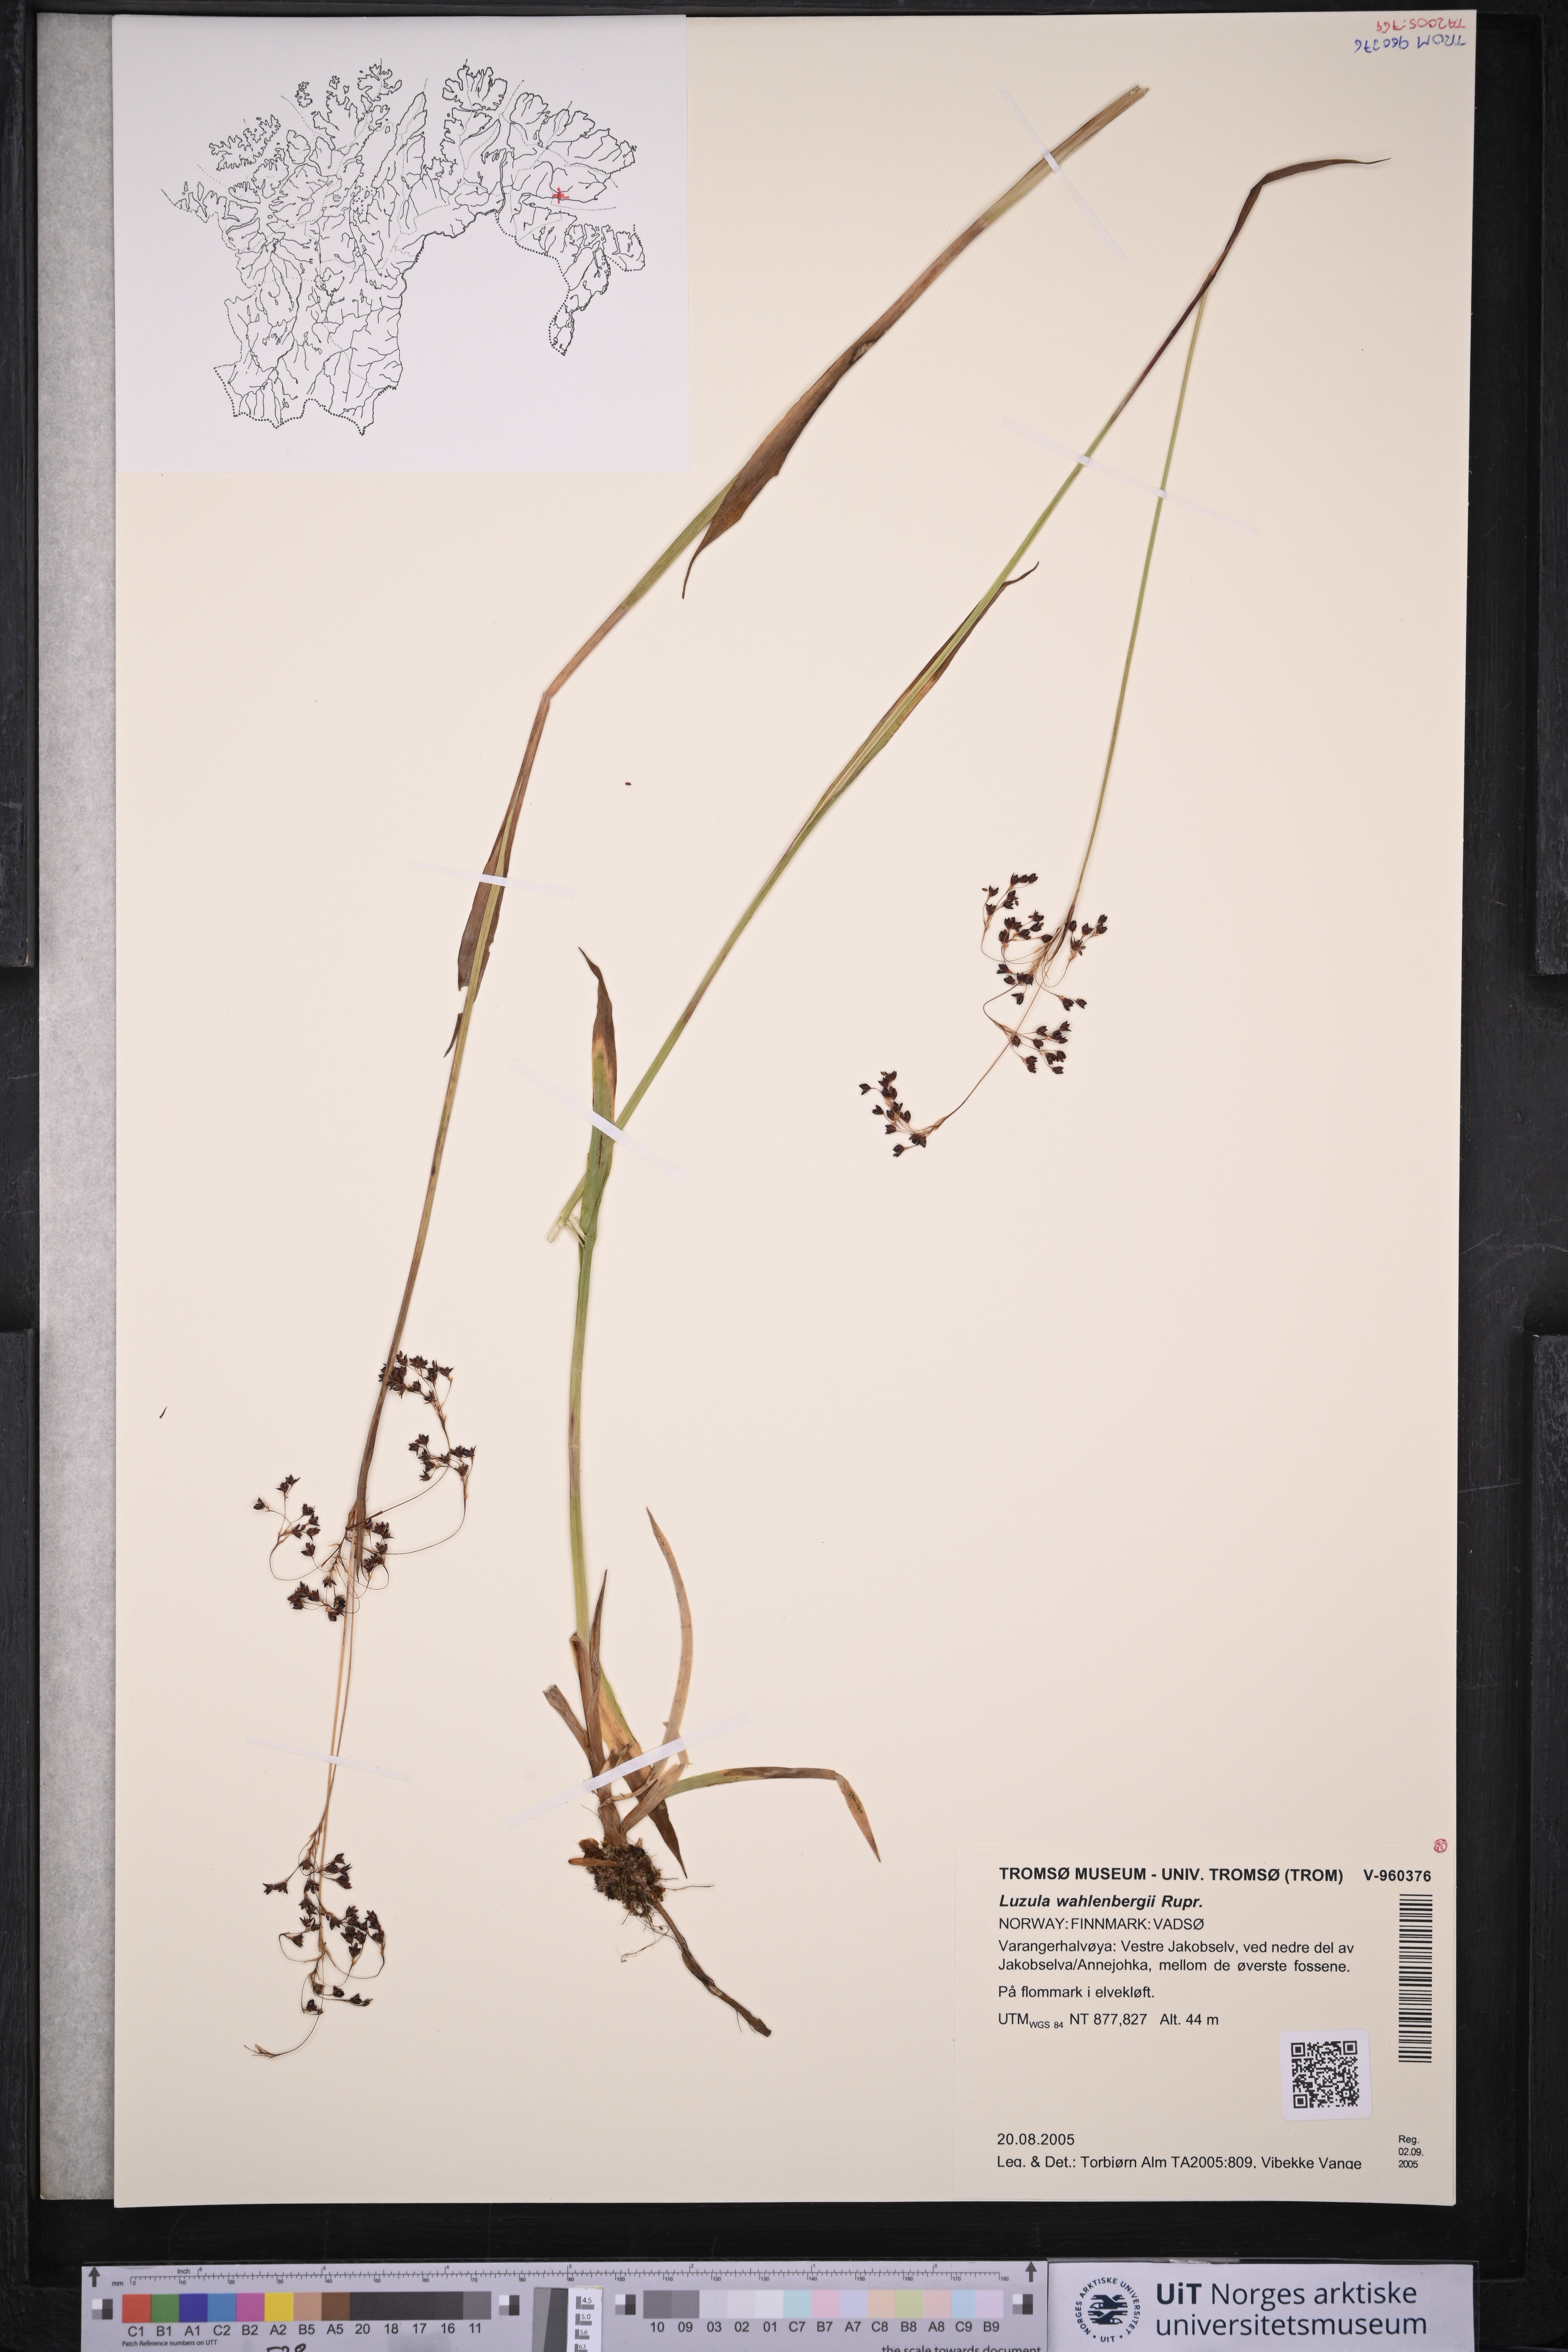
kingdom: Plantae
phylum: Tracheophyta
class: Liliopsida
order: Poales
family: Juncaceae
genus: Luzula
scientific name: Luzula wahlenbergii
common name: Wahlenberg's wood-rush
